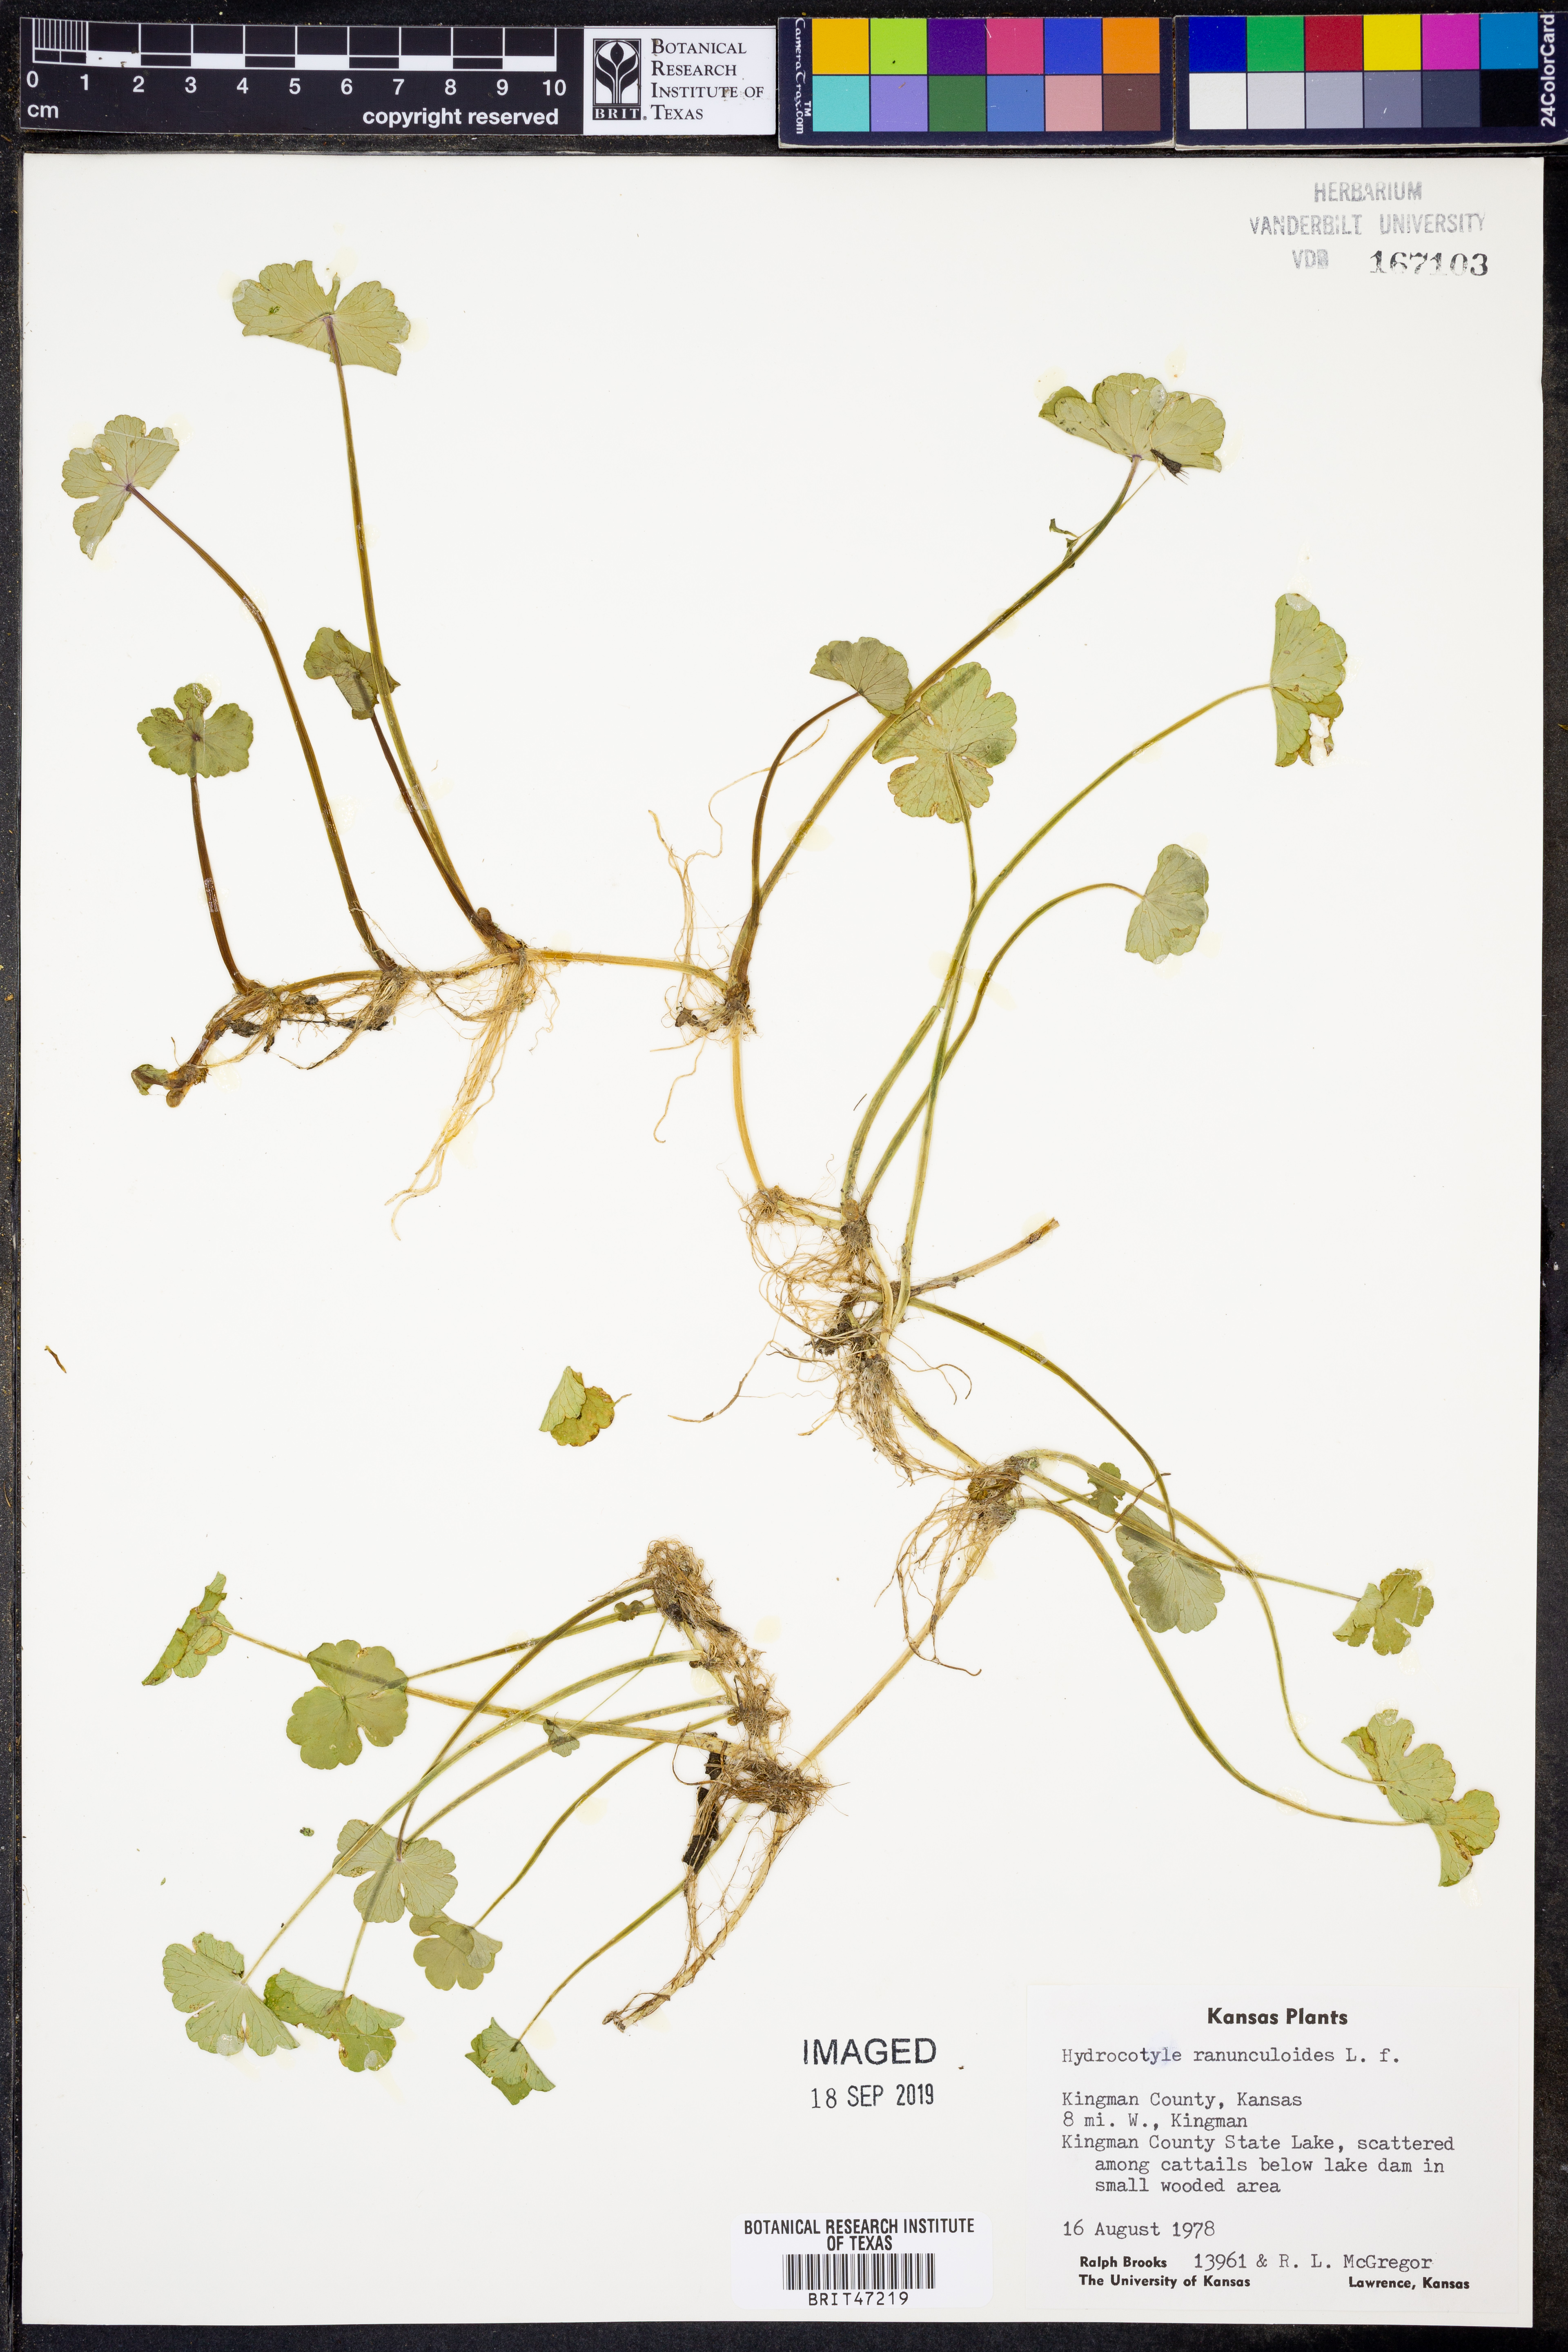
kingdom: Plantae
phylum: Tracheophyta
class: Magnoliopsida
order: Apiales
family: Araliaceae
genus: Hydrocotyle
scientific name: Hydrocotyle ranunculoides
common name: Floating pennywort
